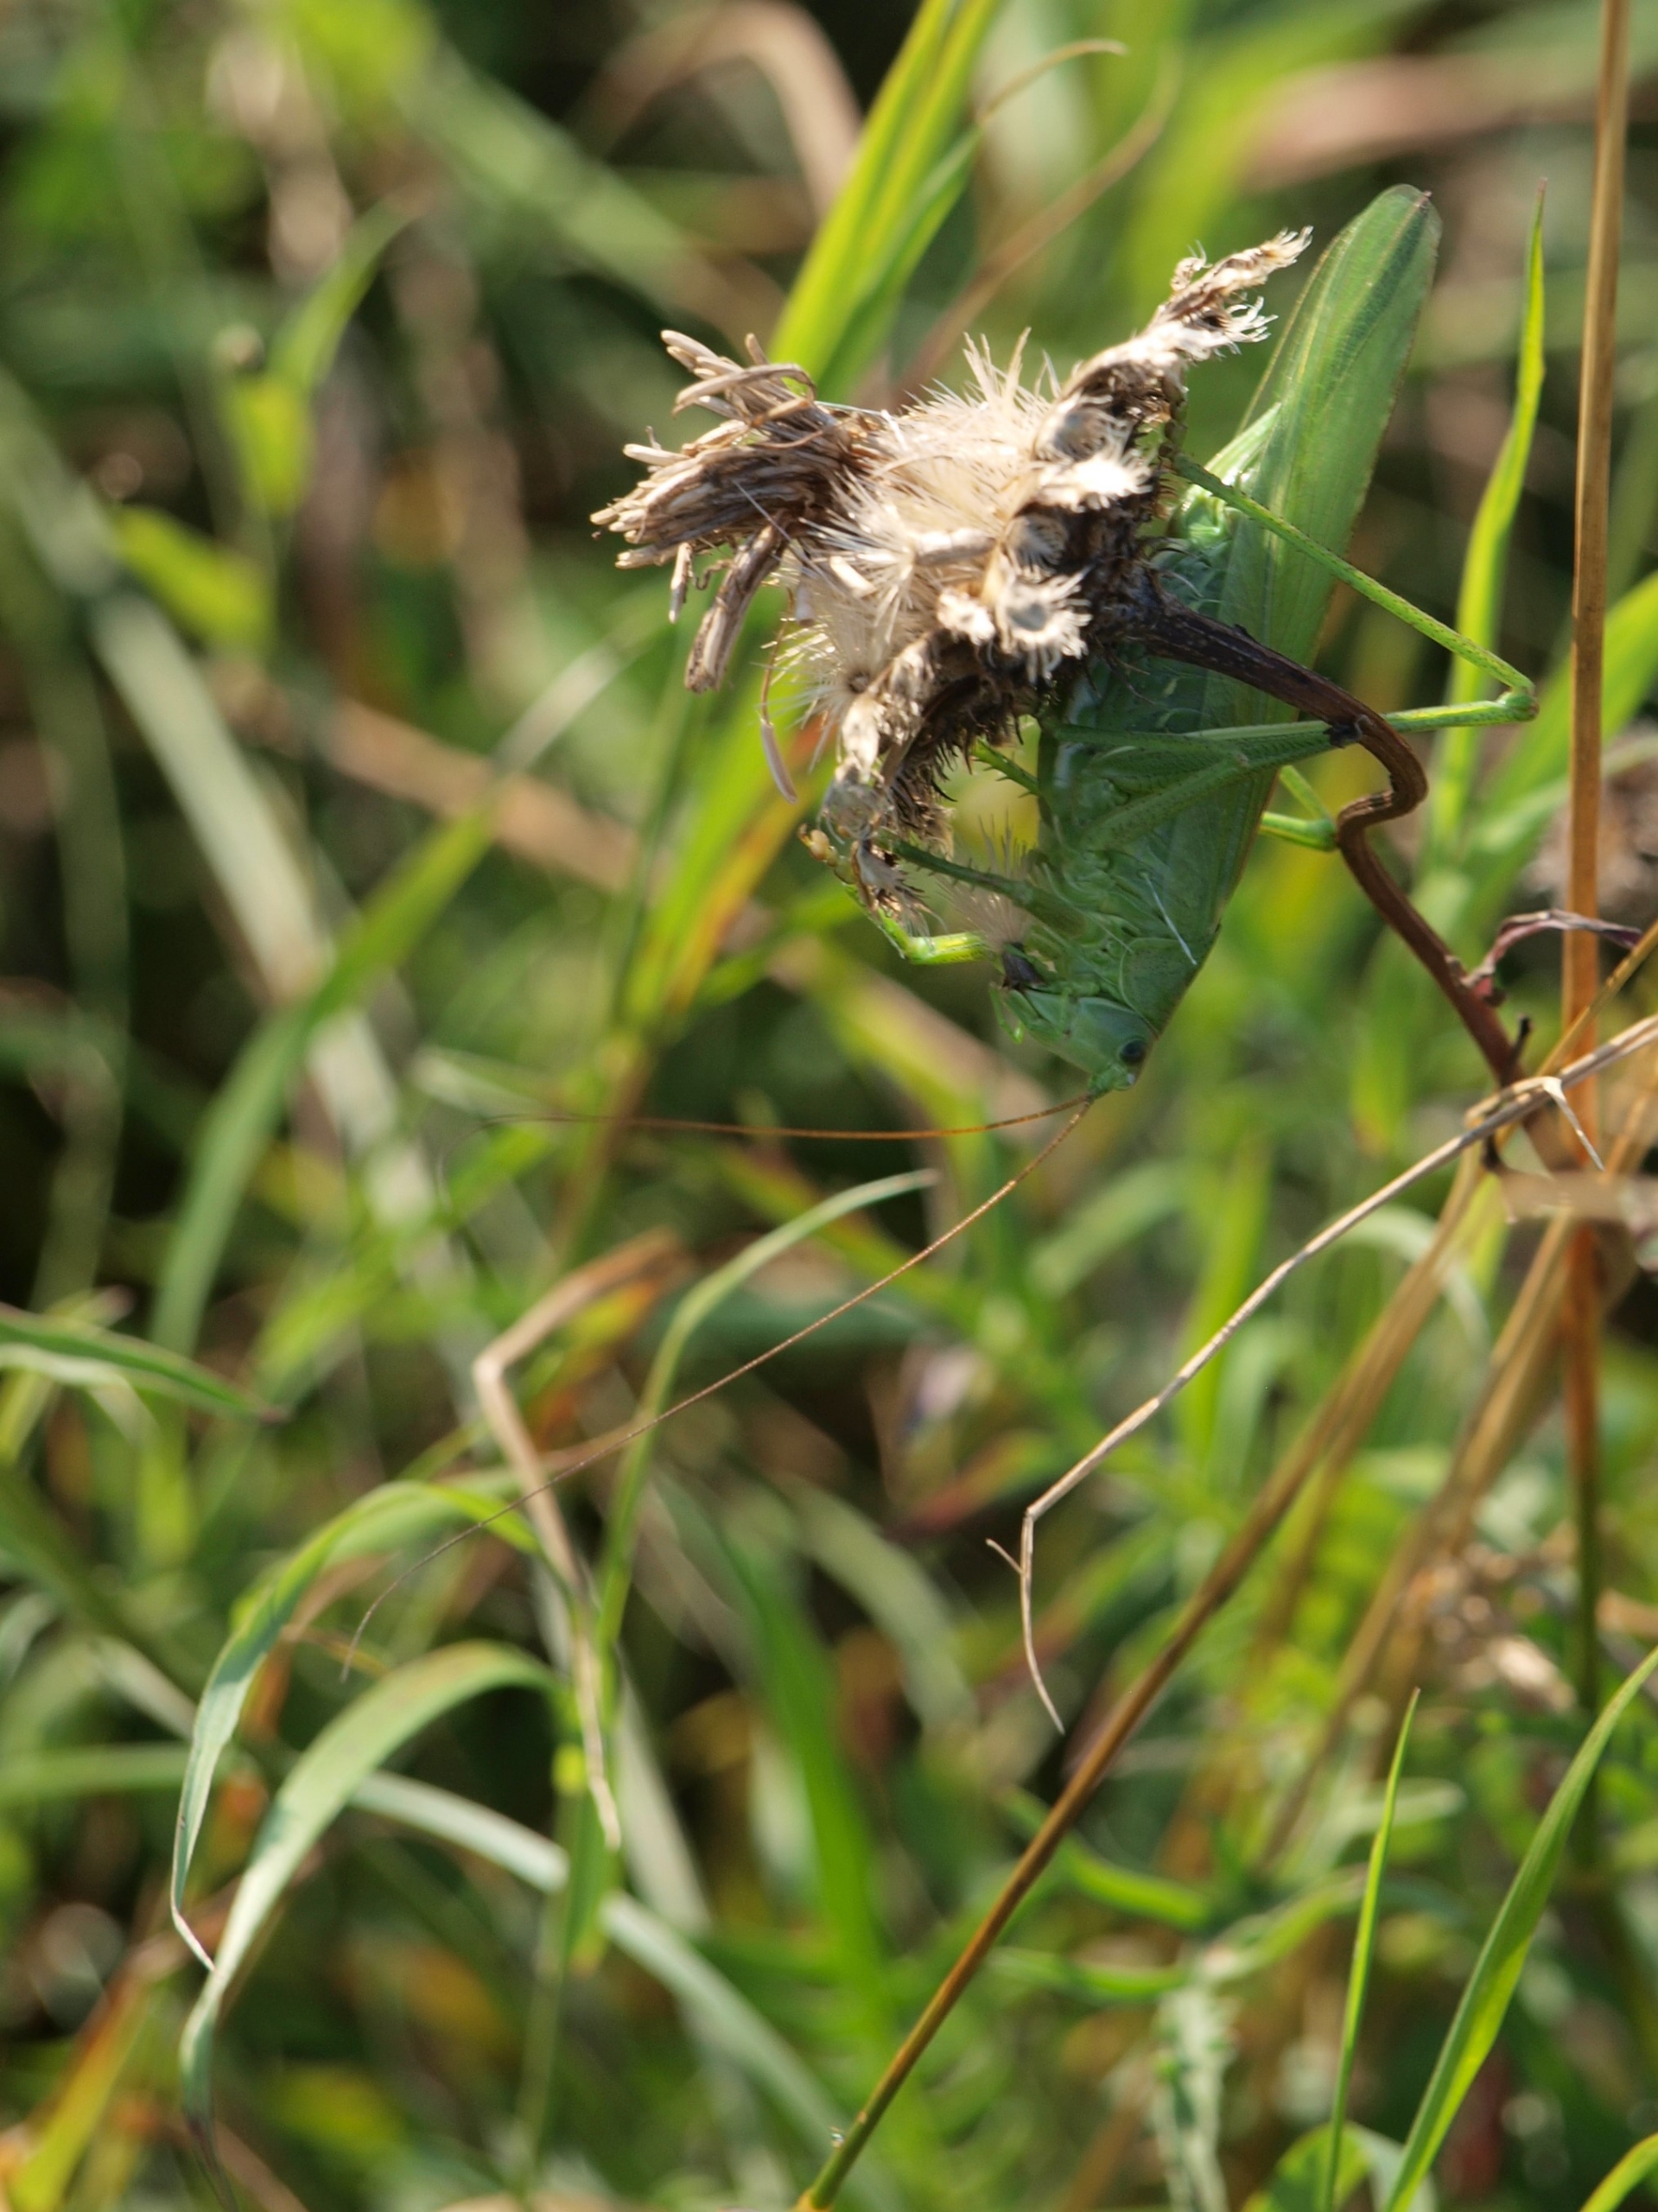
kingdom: Animalia
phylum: Arthropoda
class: Insecta
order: Orthoptera
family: Tettigoniidae
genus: Tettigonia
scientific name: Tettigonia viridissima
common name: Stor grøn løvgræshoppe
